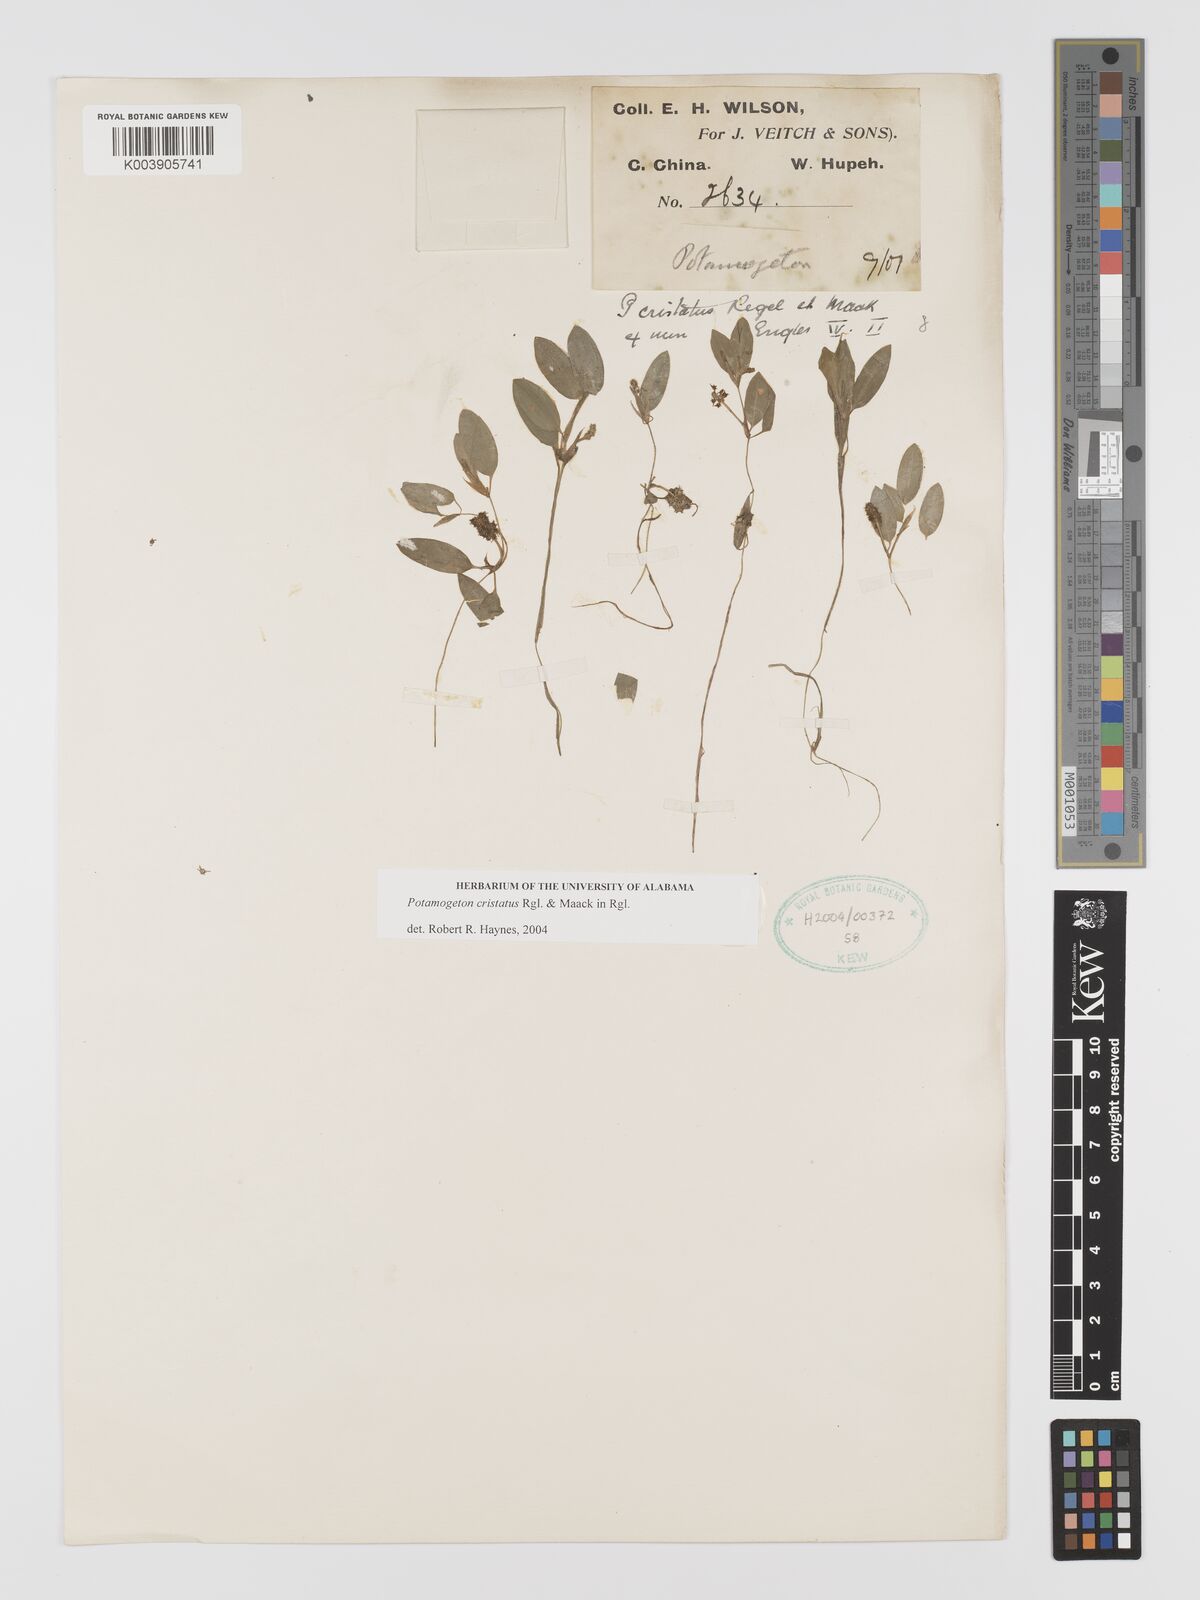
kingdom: Plantae
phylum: Tracheophyta
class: Liliopsida
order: Alismatales
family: Potamogetonaceae
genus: Potamogeton
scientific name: Potamogeton cristatus
